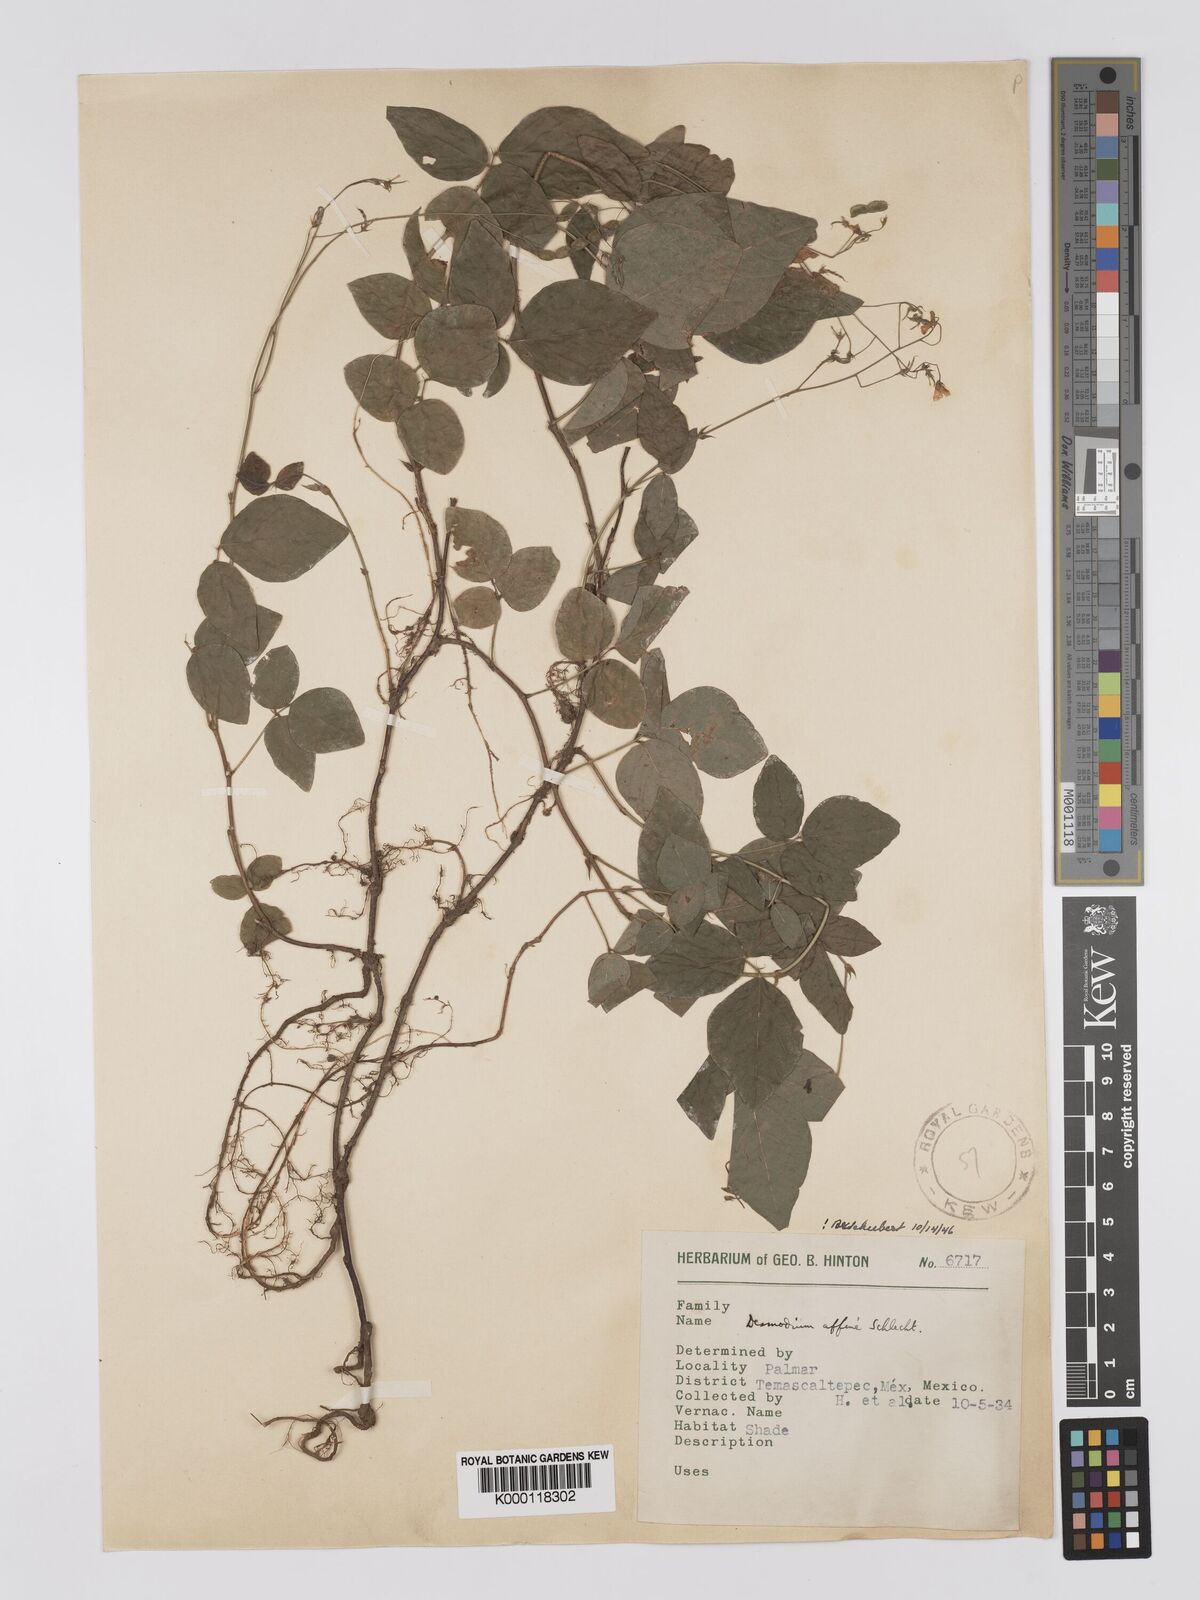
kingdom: Plantae
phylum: Tracheophyta
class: Magnoliopsida
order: Fabales
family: Fabaceae
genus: Desmodium
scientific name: Desmodium affine
